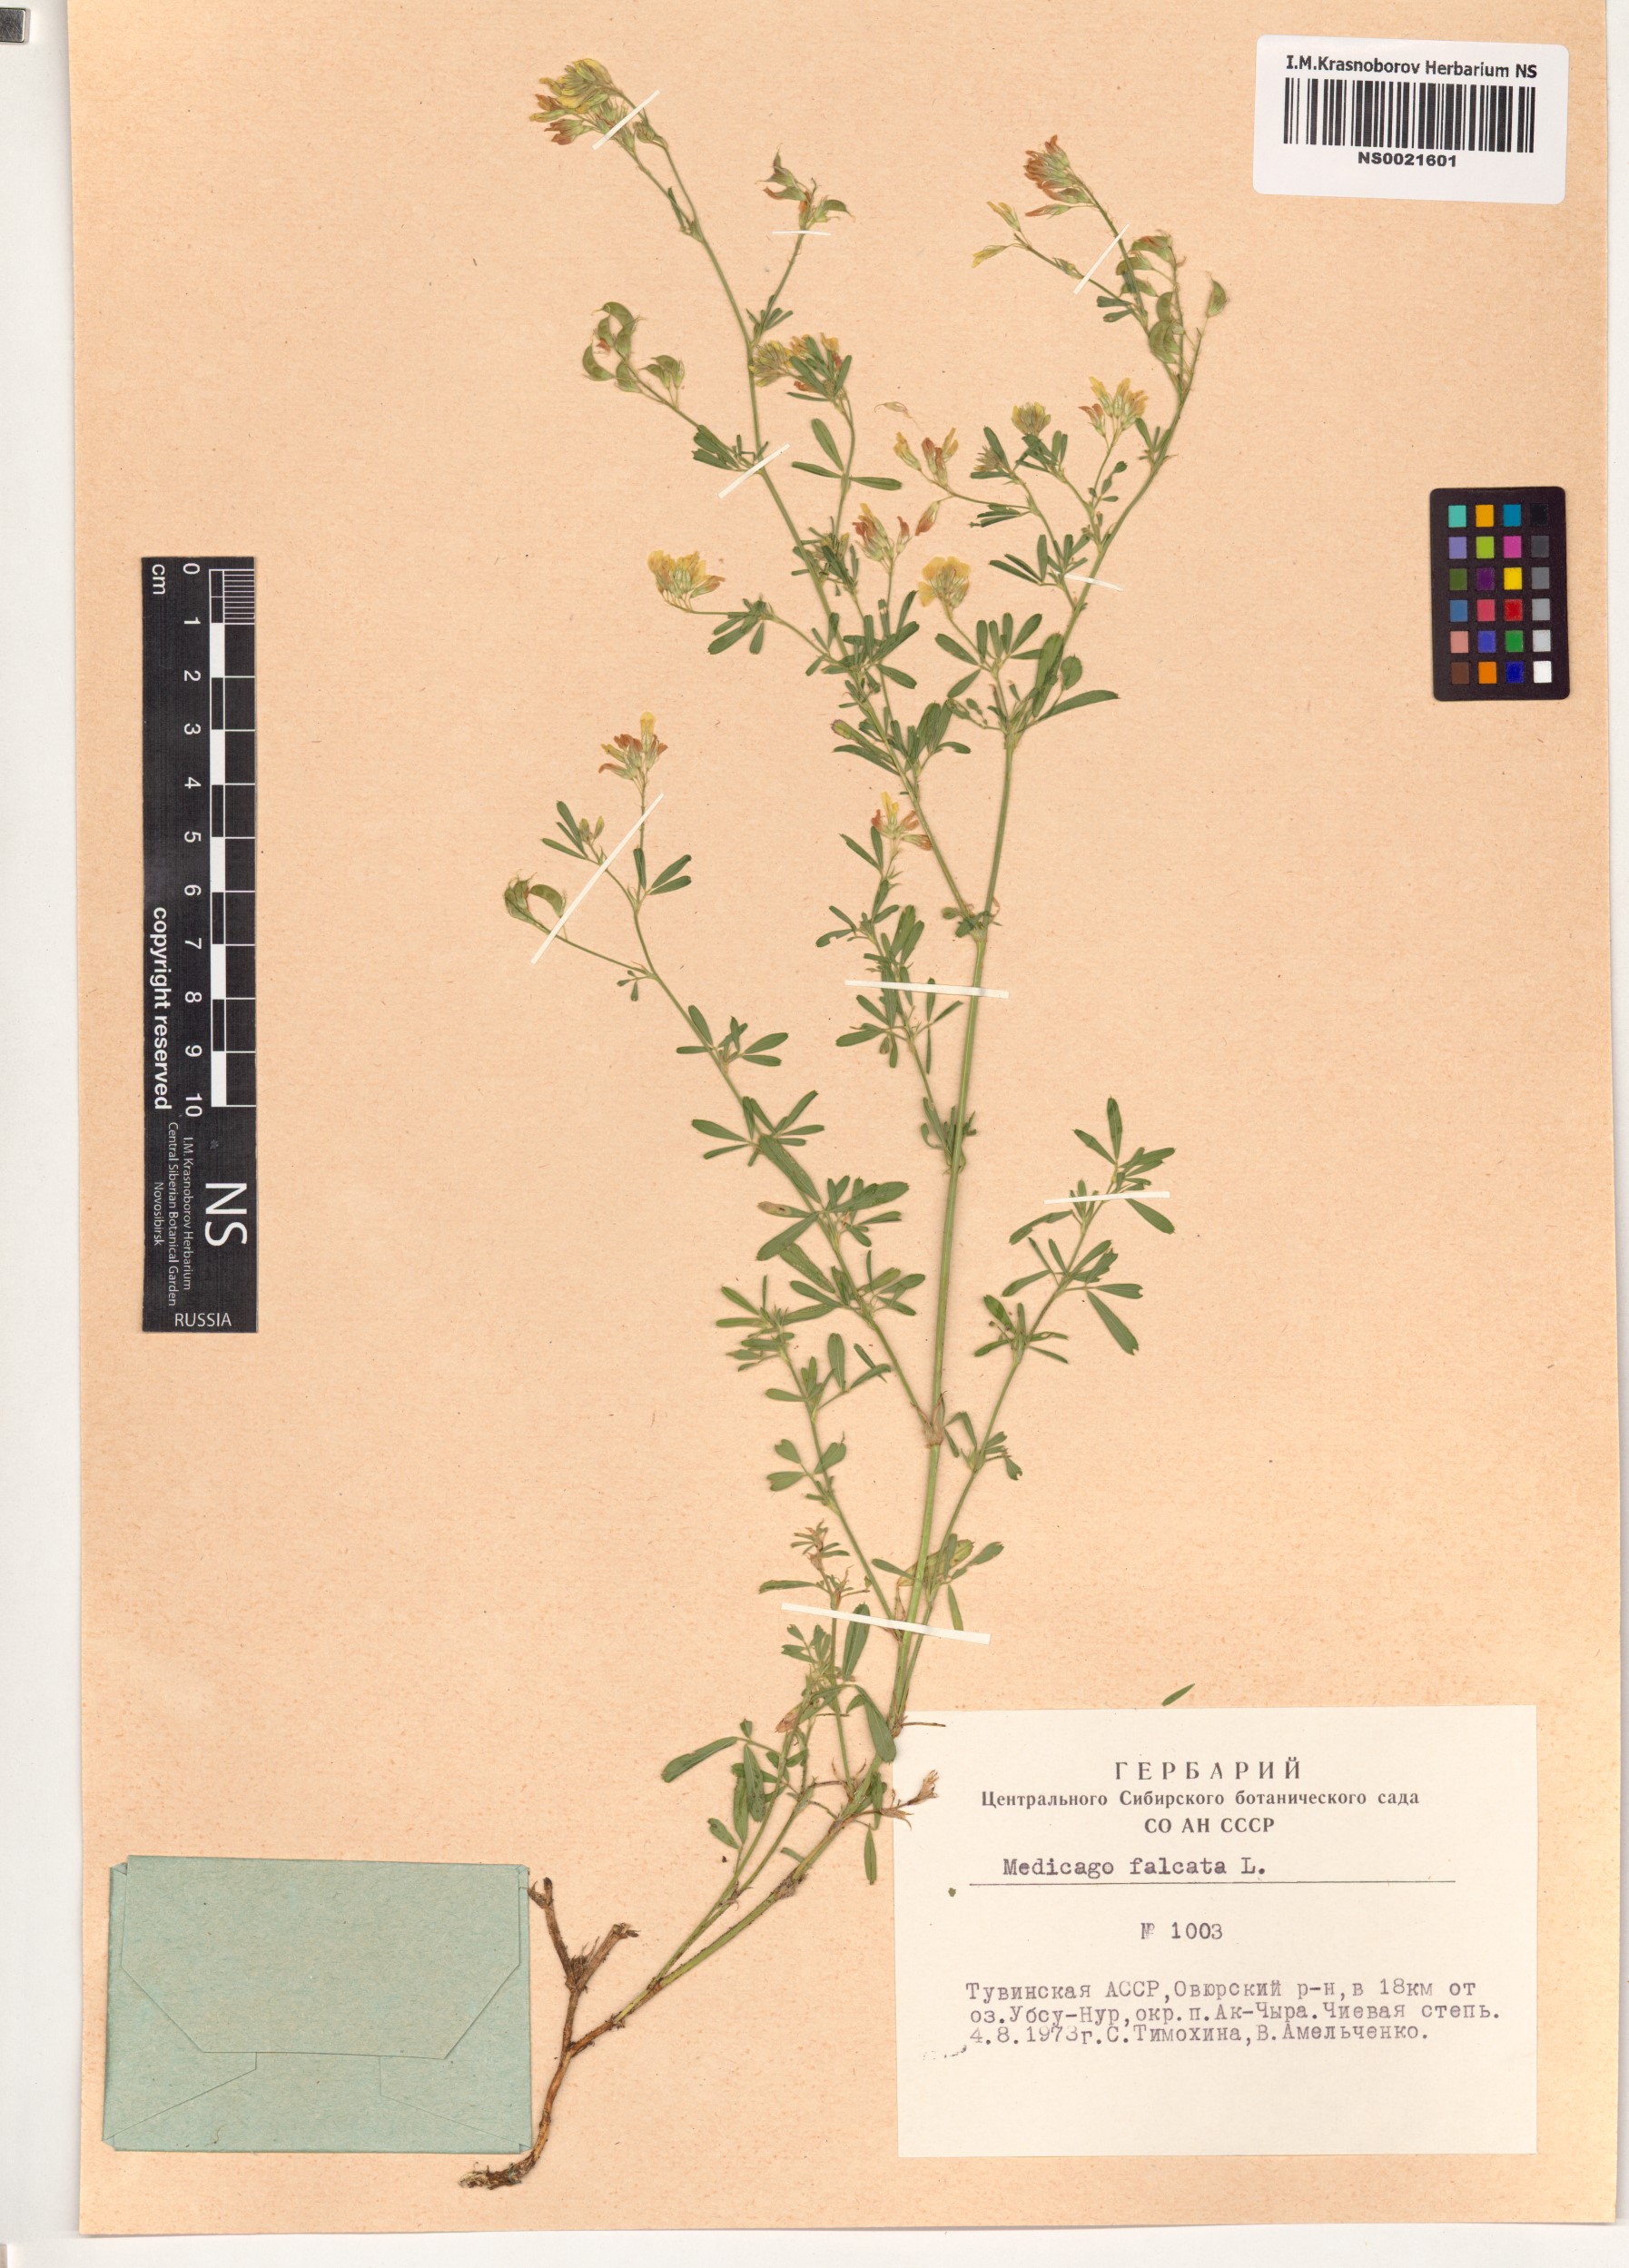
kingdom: Plantae
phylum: Tracheophyta
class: Magnoliopsida
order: Fabales
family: Fabaceae
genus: Medicago
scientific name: Medicago falcata
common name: Sickle medick
